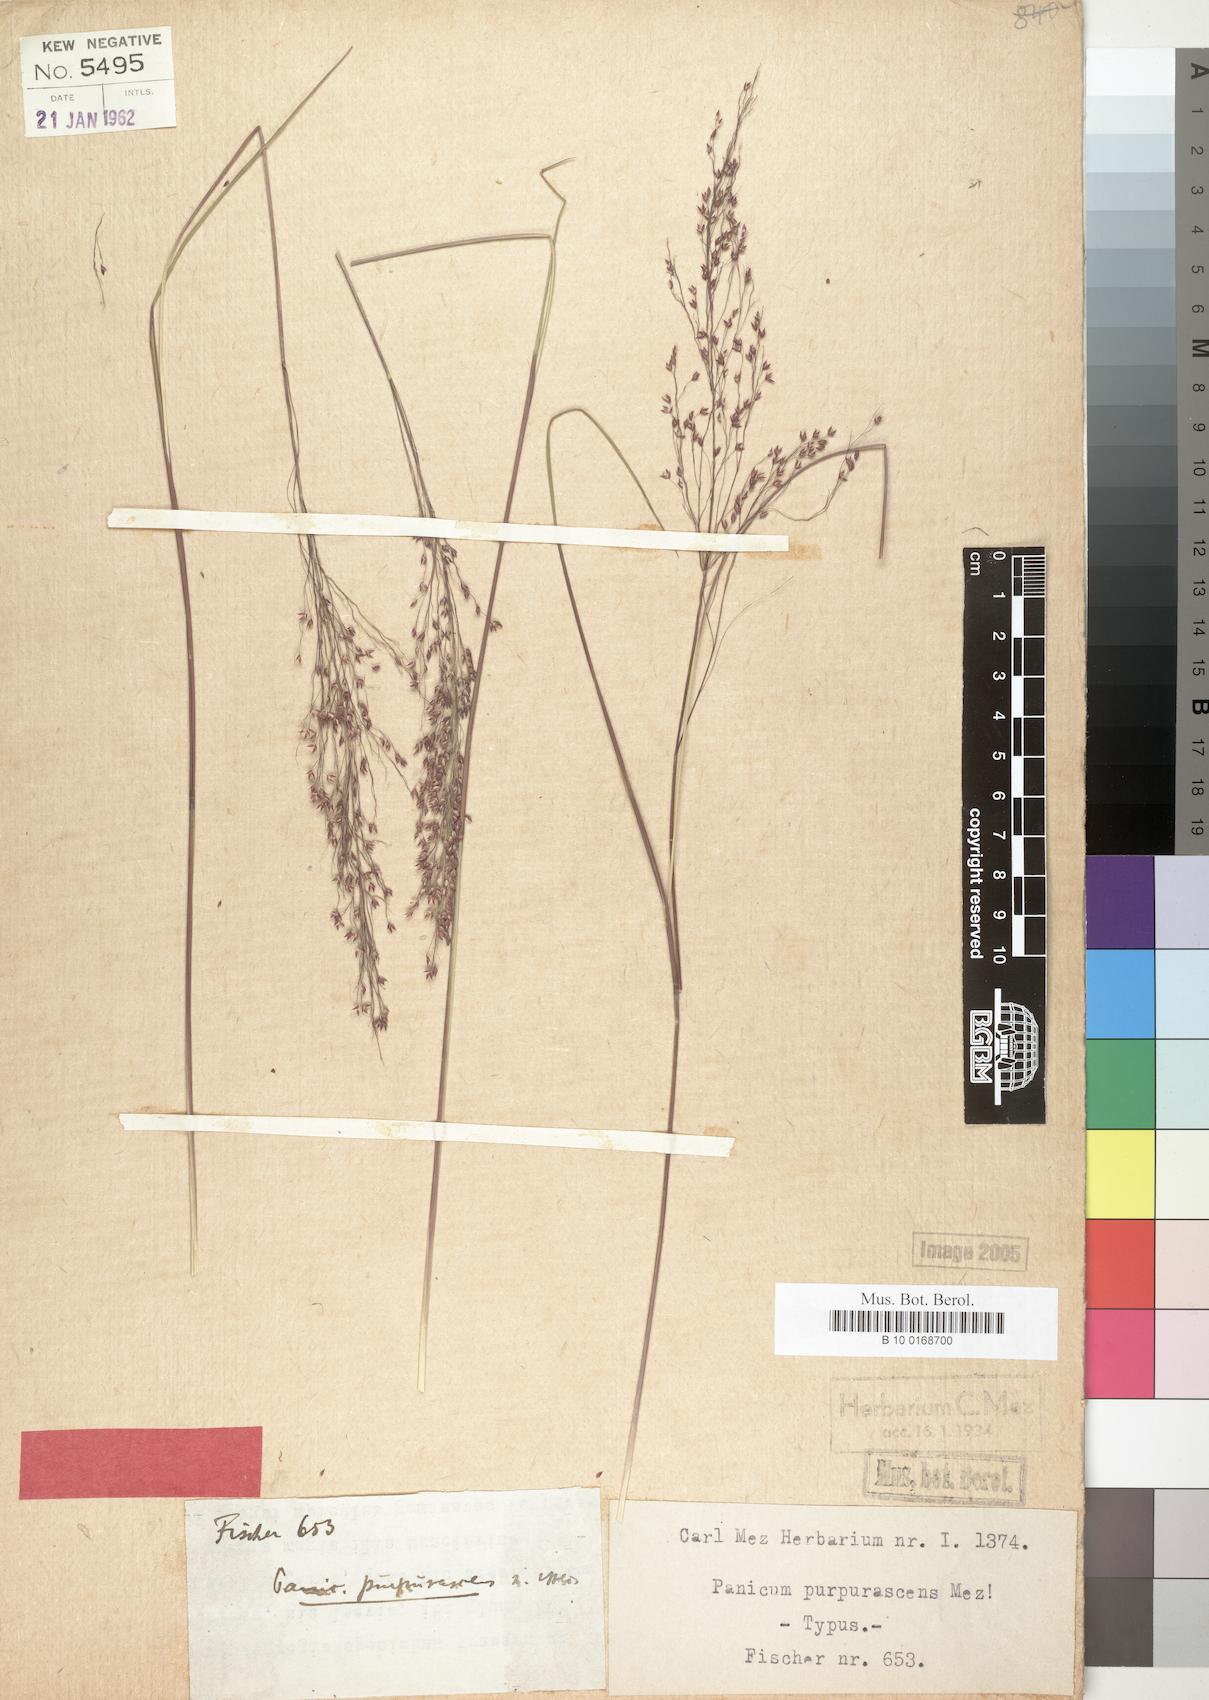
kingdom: Plantae
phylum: Tracheophyta
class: Liliopsida
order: Poales
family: Poaceae
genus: Panicum
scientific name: Panicum fluviicola
